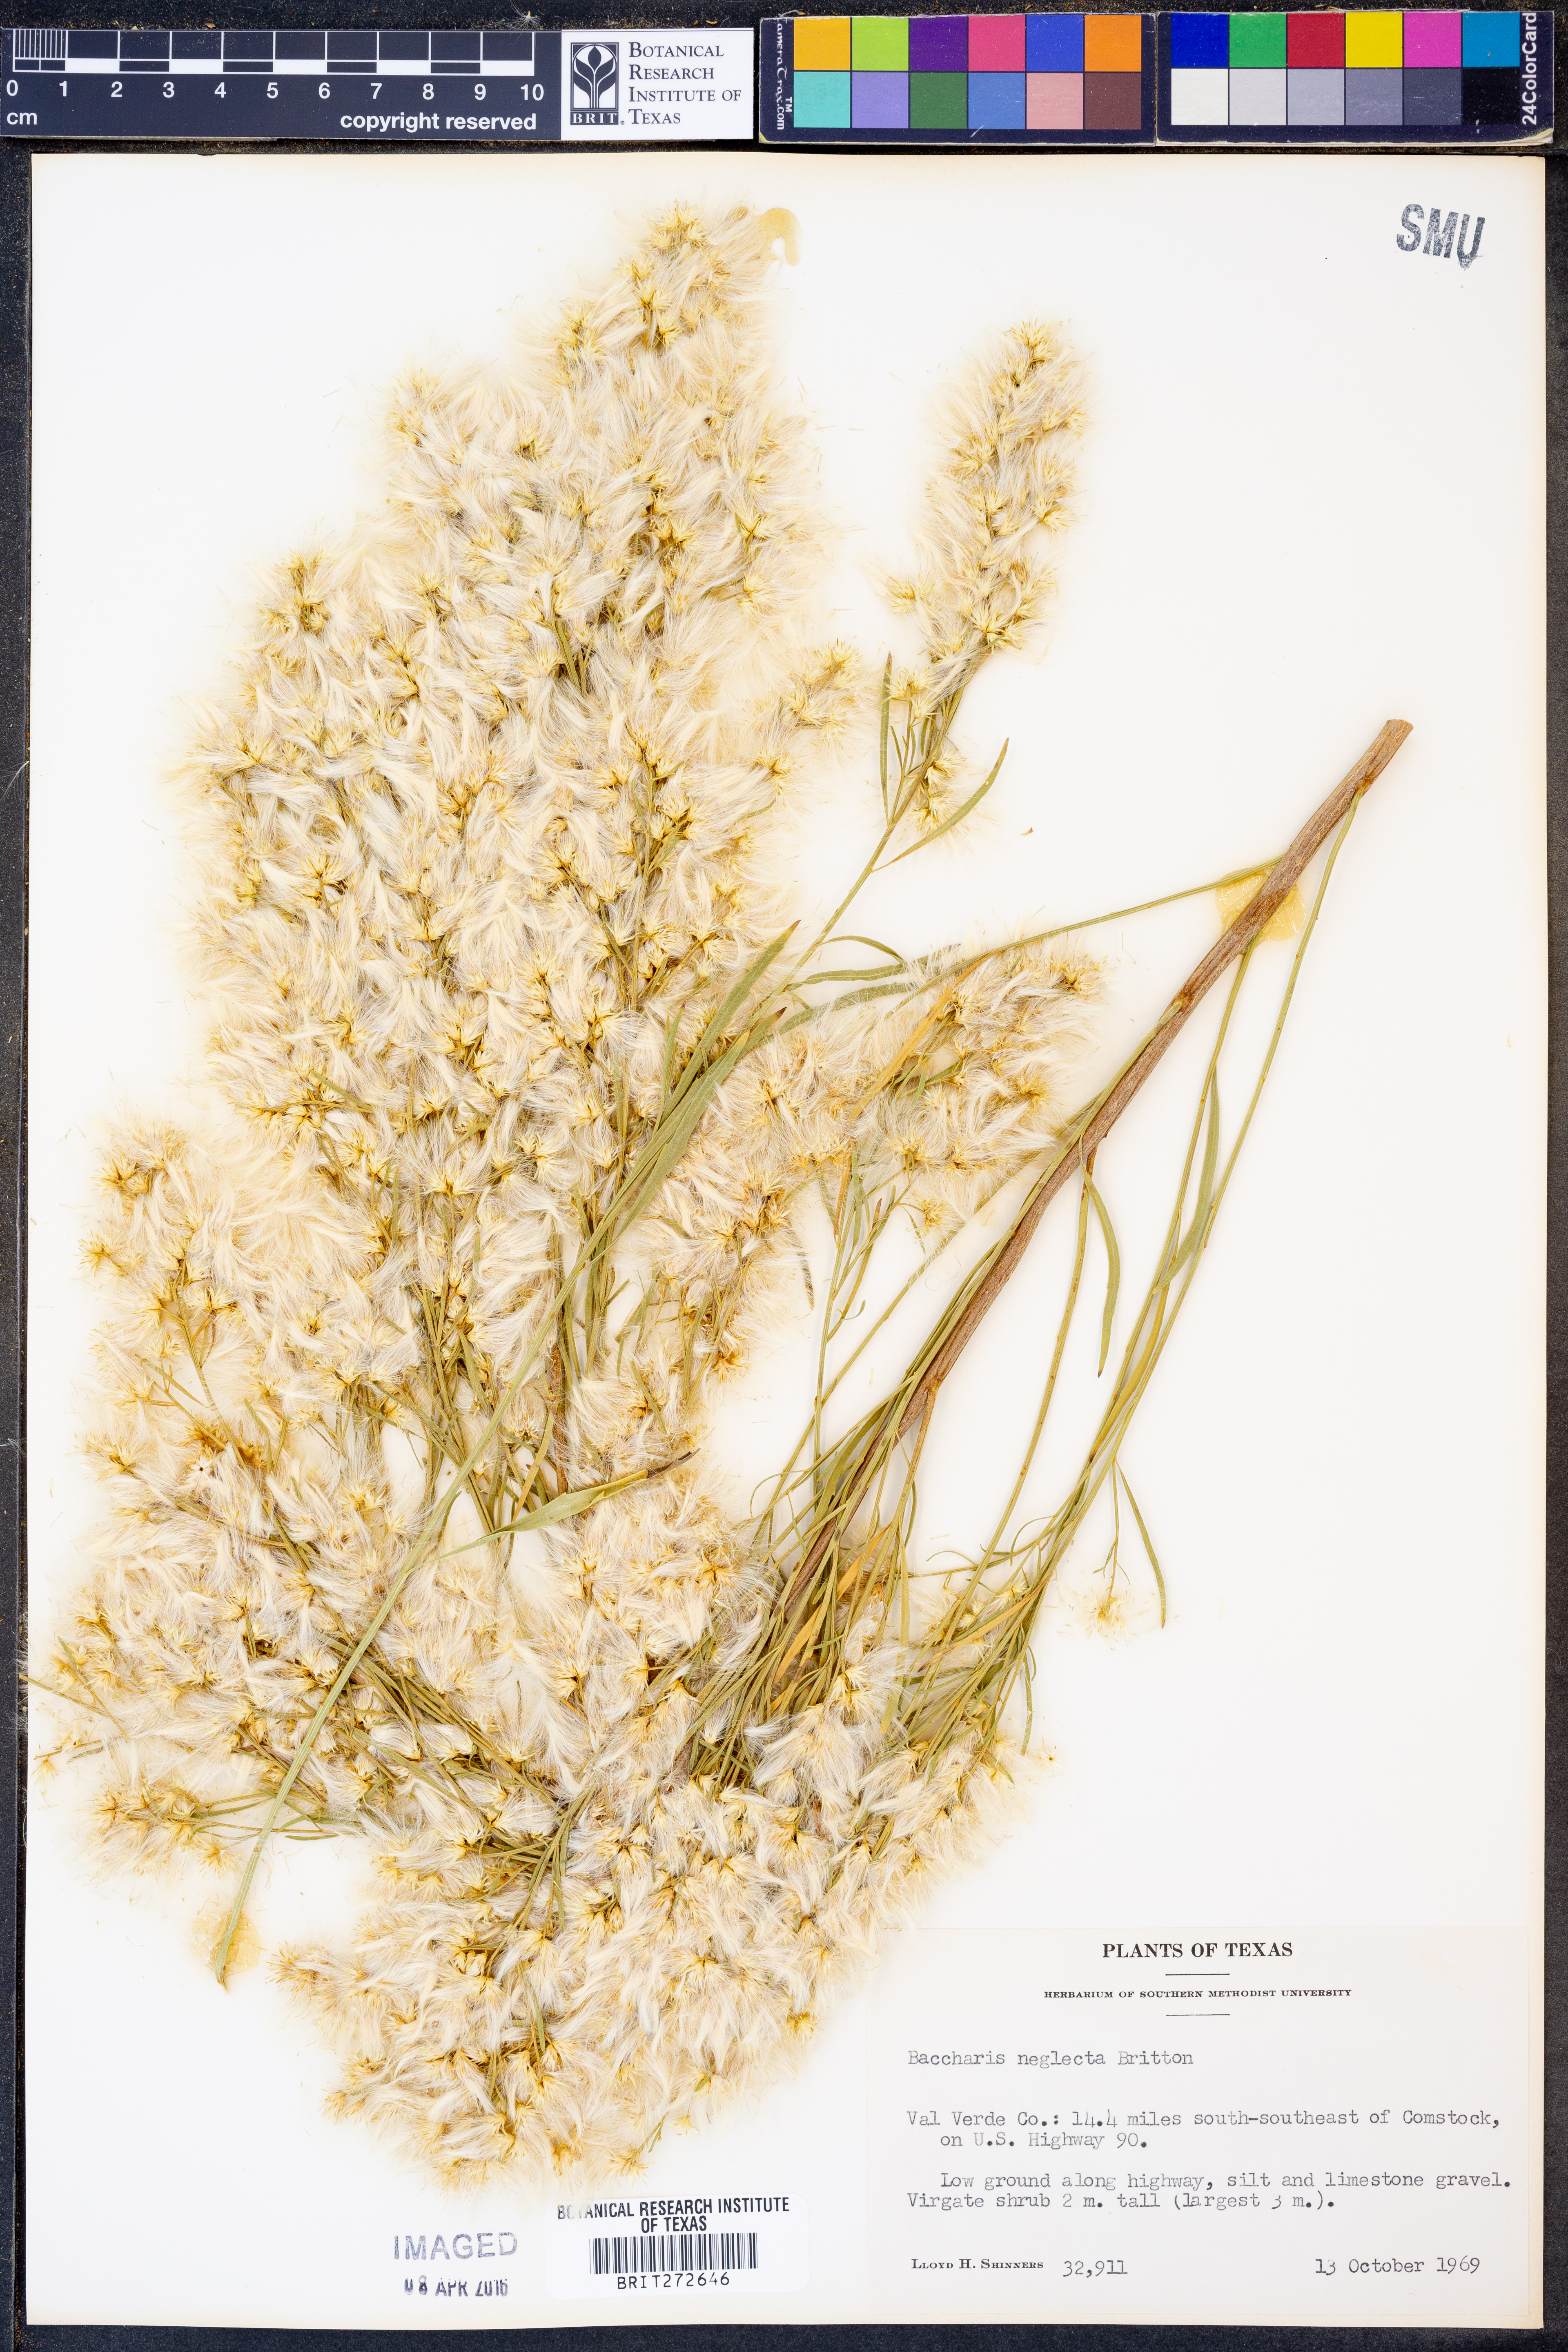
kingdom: Plantae
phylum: Tracheophyta
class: Magnoliopsida
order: Asterales
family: Asteraceae
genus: Baccharis
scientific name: Baccharis neglecta
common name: Roosevelt-weed
